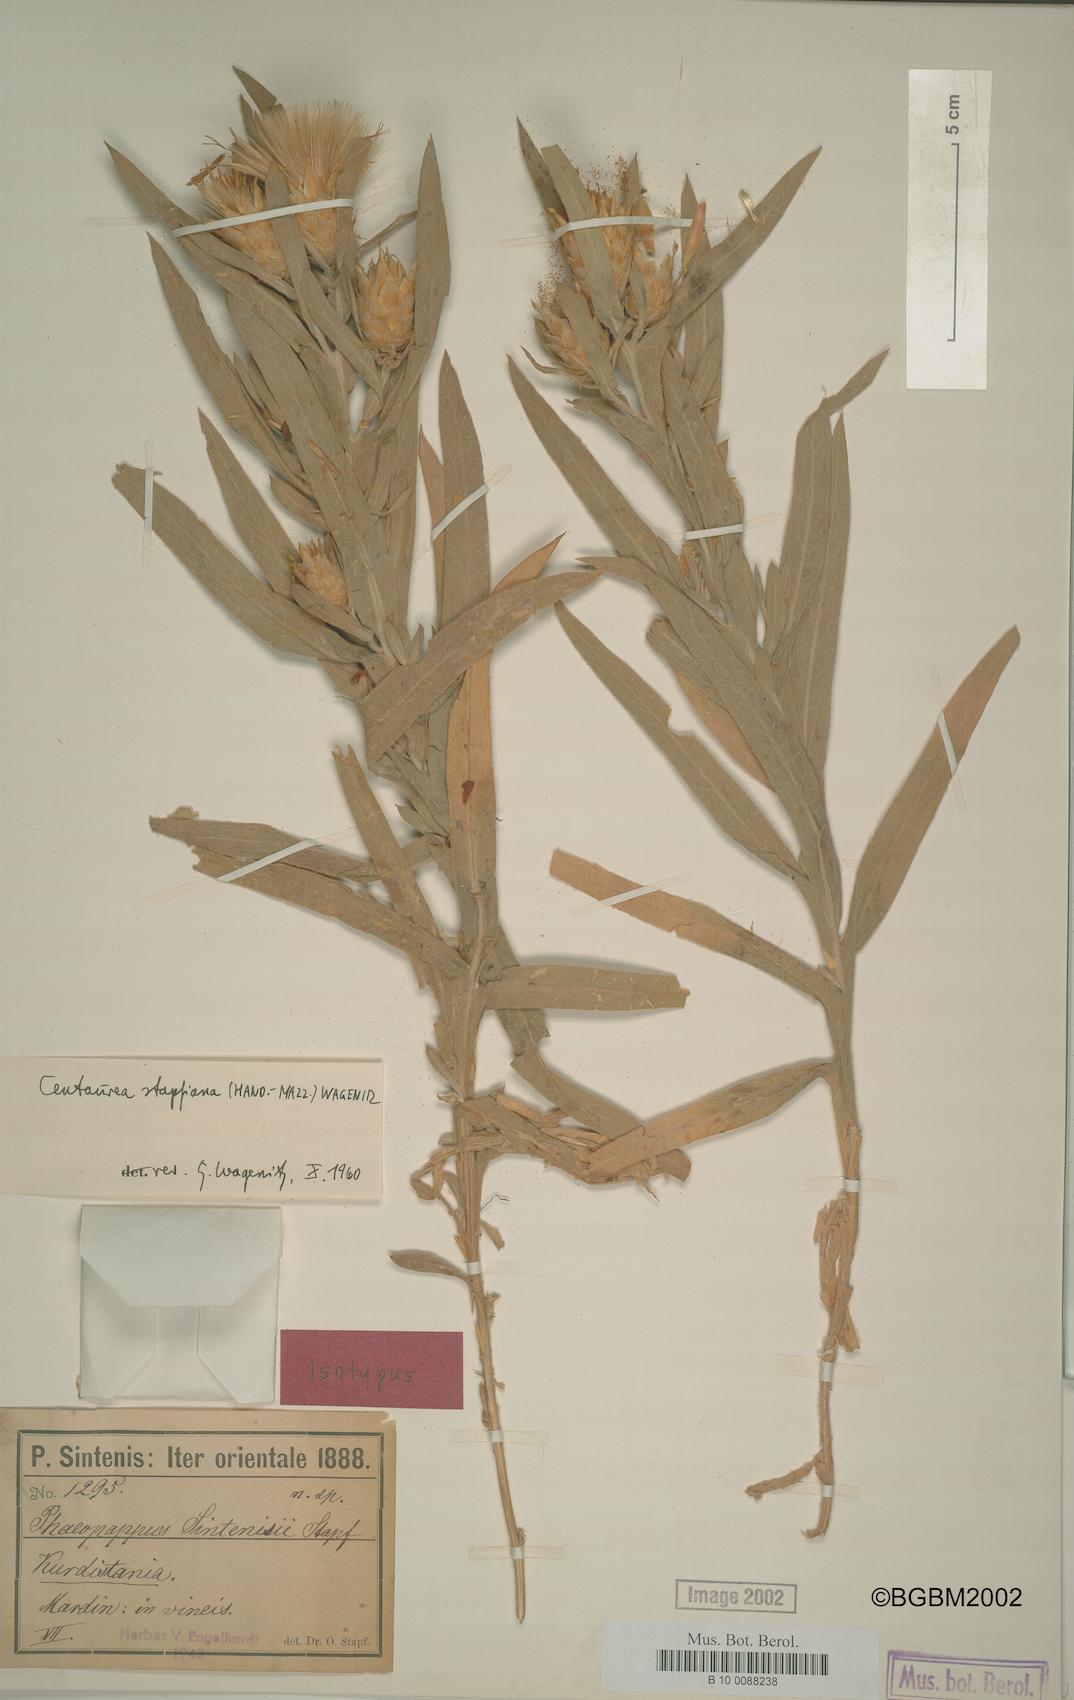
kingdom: Plantae
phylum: Tracheophyta
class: Magnoliopsida
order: Asterales
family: Asteraceae
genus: Centaurea
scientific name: Centaurea stapfiana
